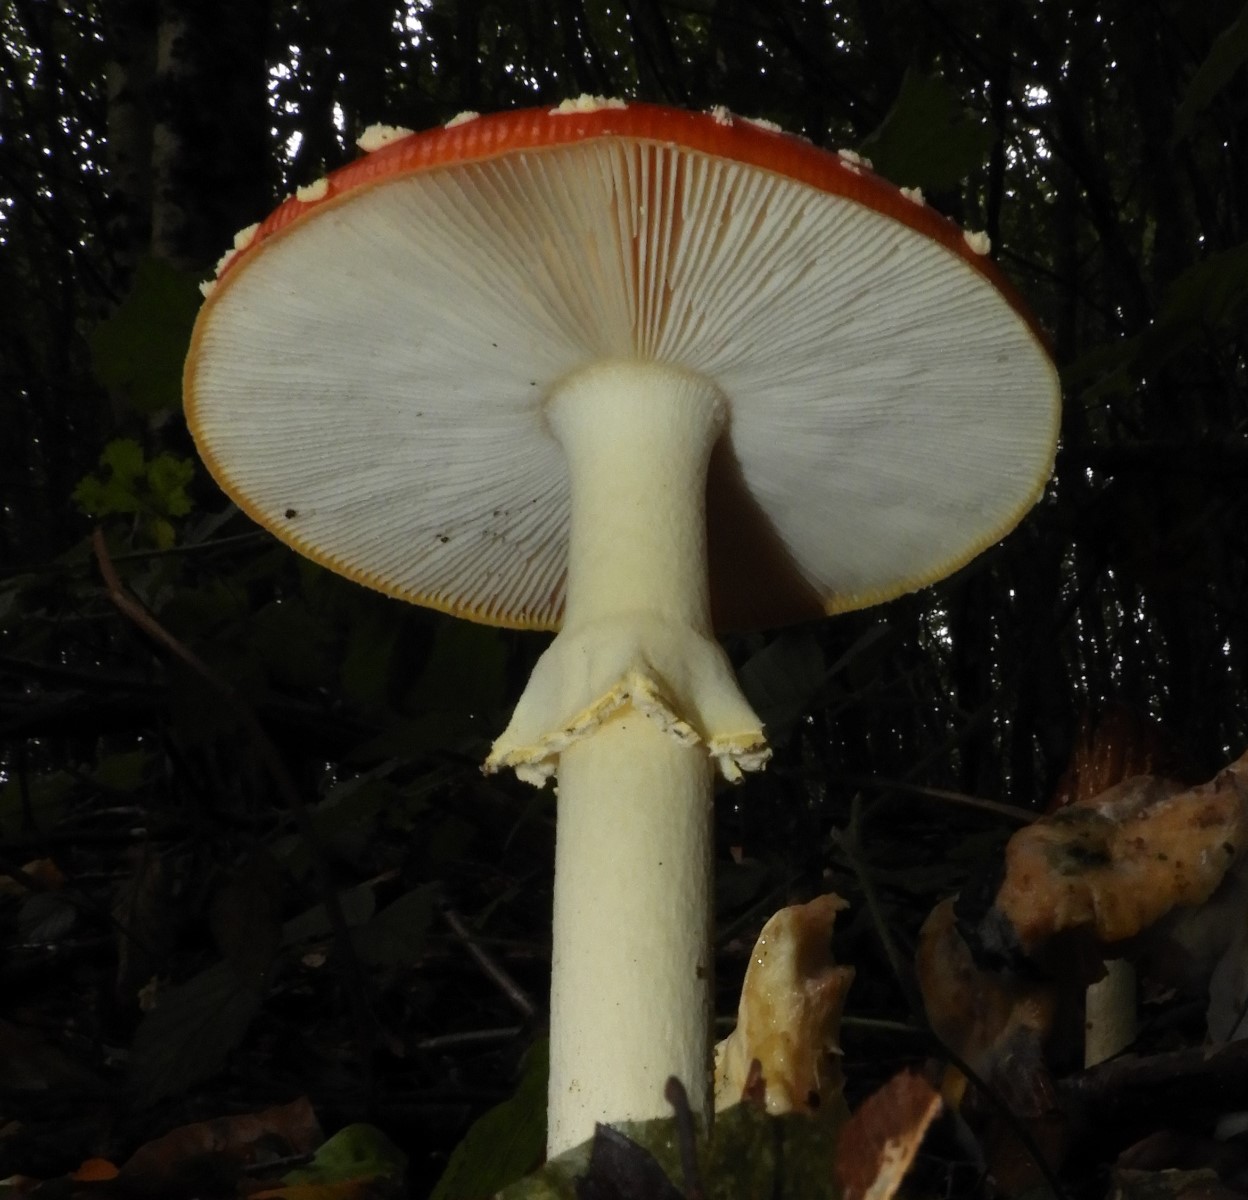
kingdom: Fungi
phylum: Basidiomycota
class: Agaricomycetes
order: Agaricales
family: Amanitaceae
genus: Amanita
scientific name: Amanita muscaria
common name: rød fluesvamp
